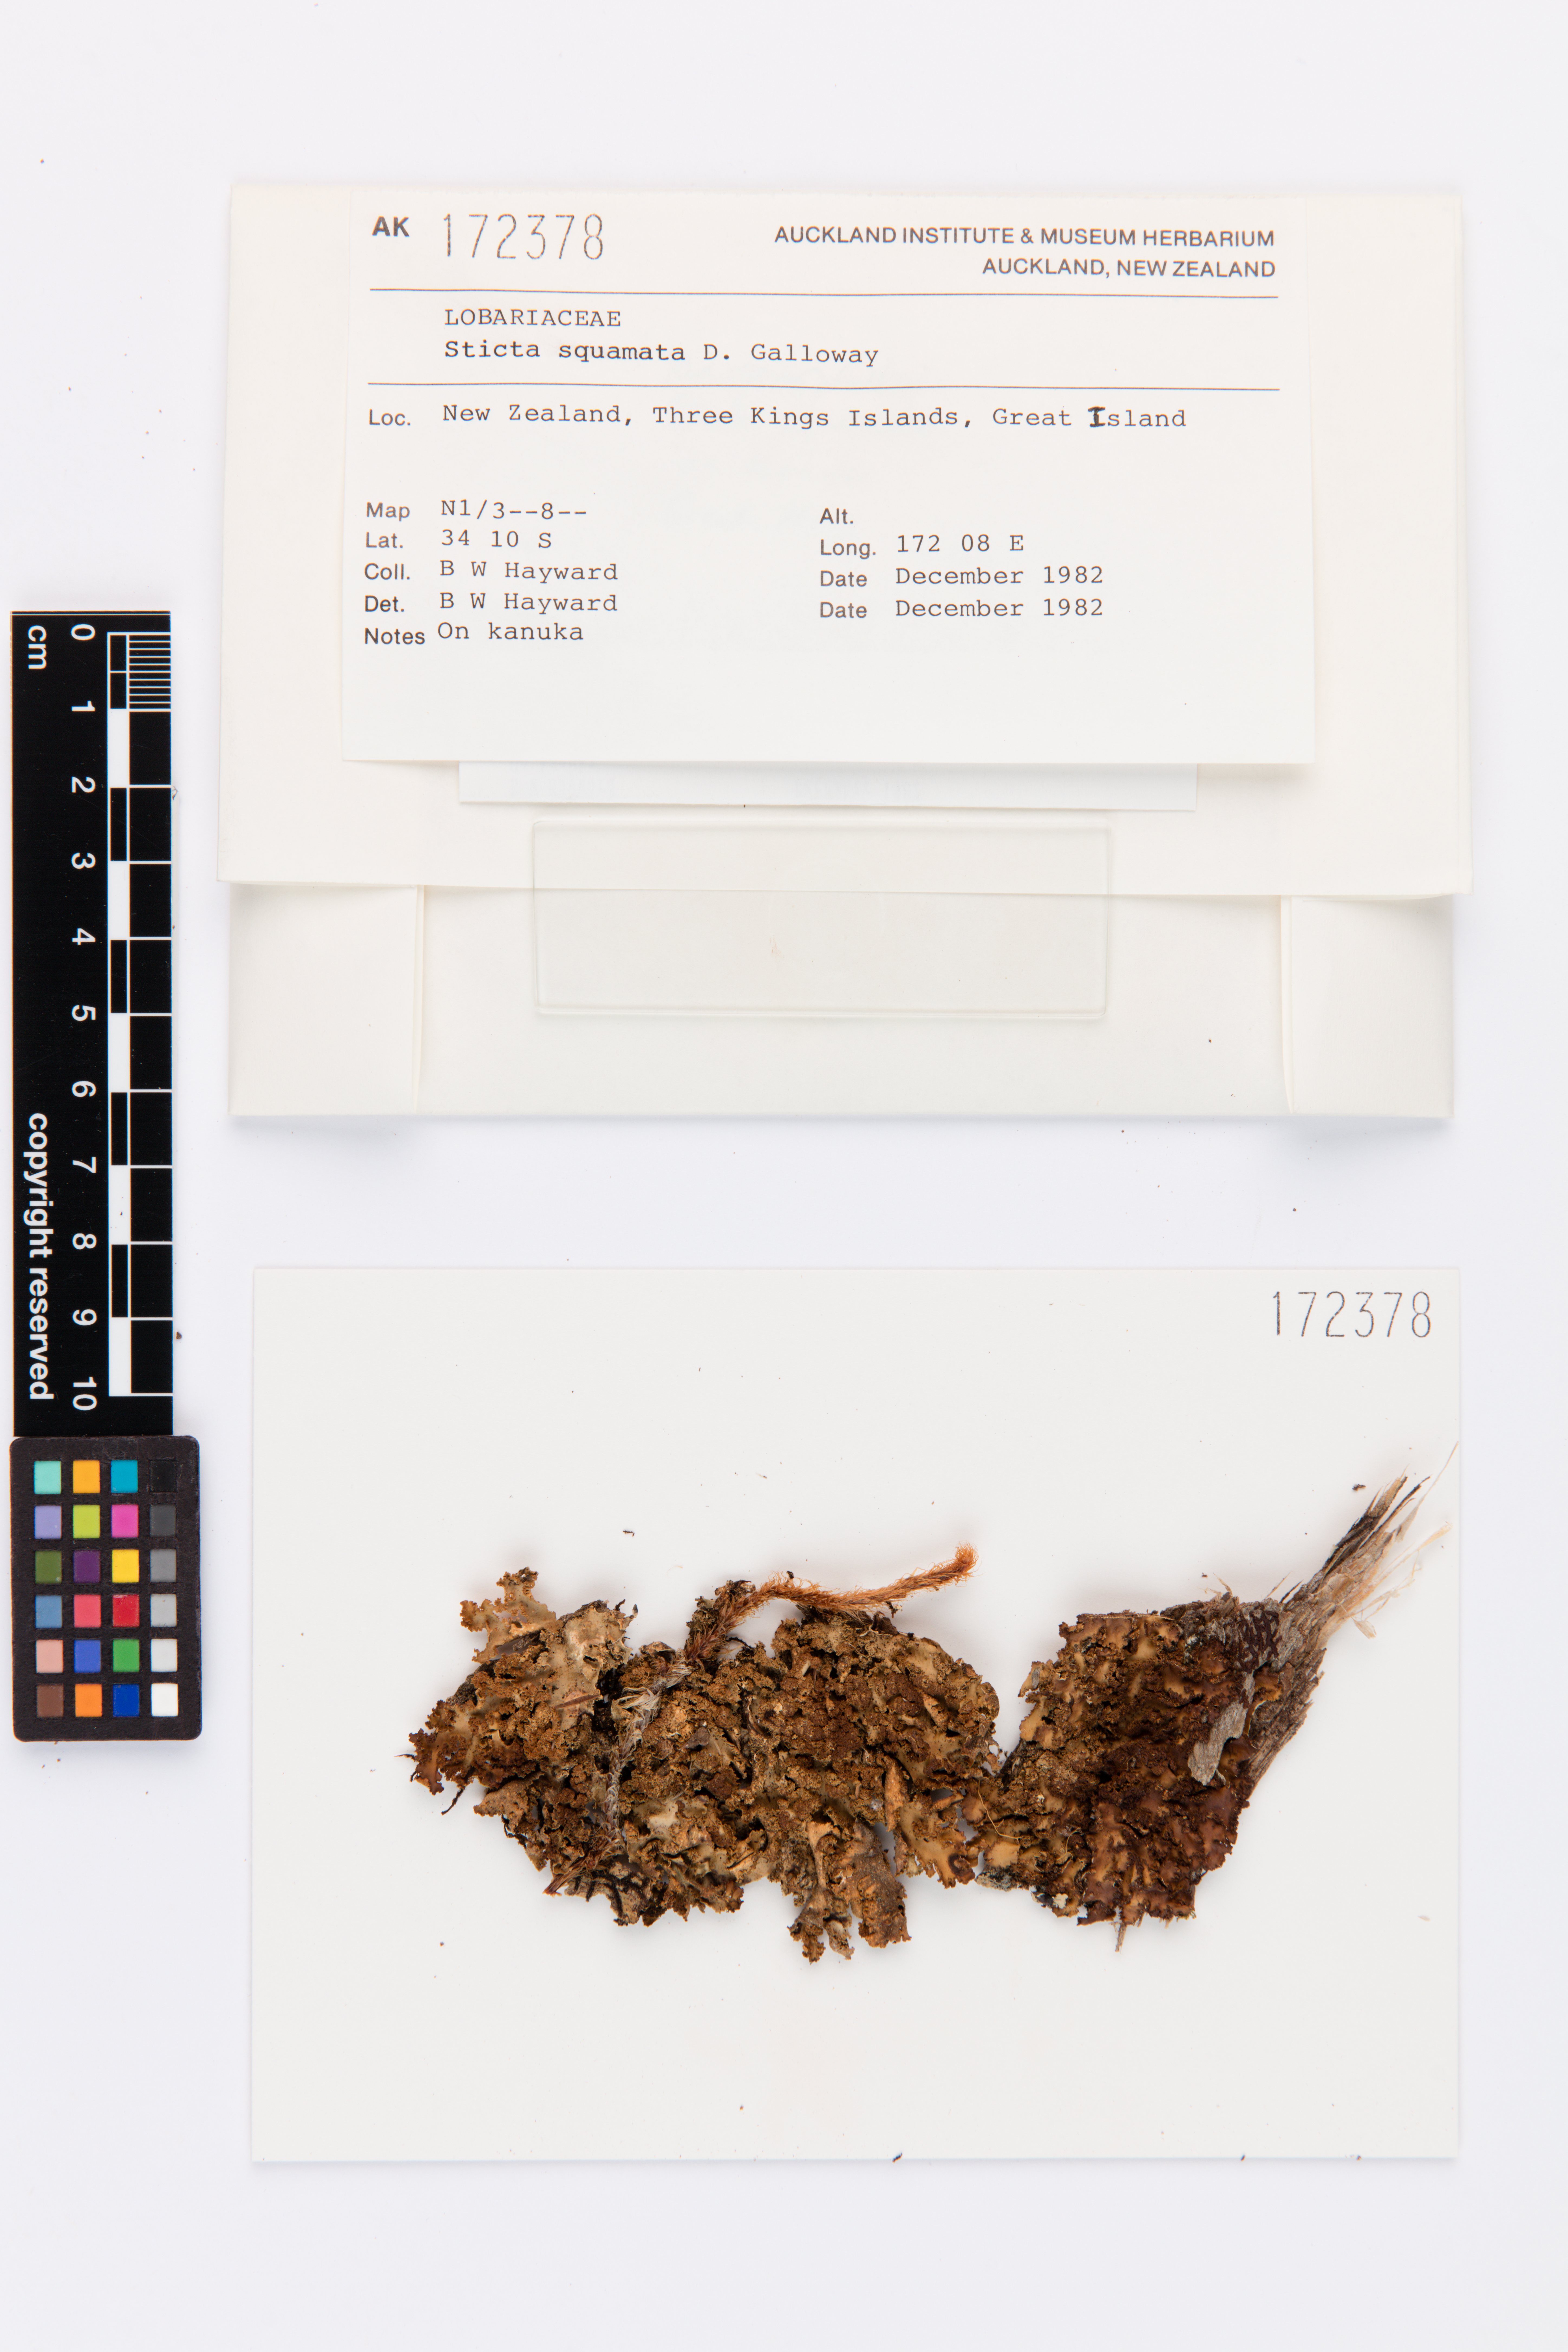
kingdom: Fungi
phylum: Ascomycota
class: Lecanoromycetes
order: Peltigerales
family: Lobariaceae
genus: Sticta
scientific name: Sticta squamata
